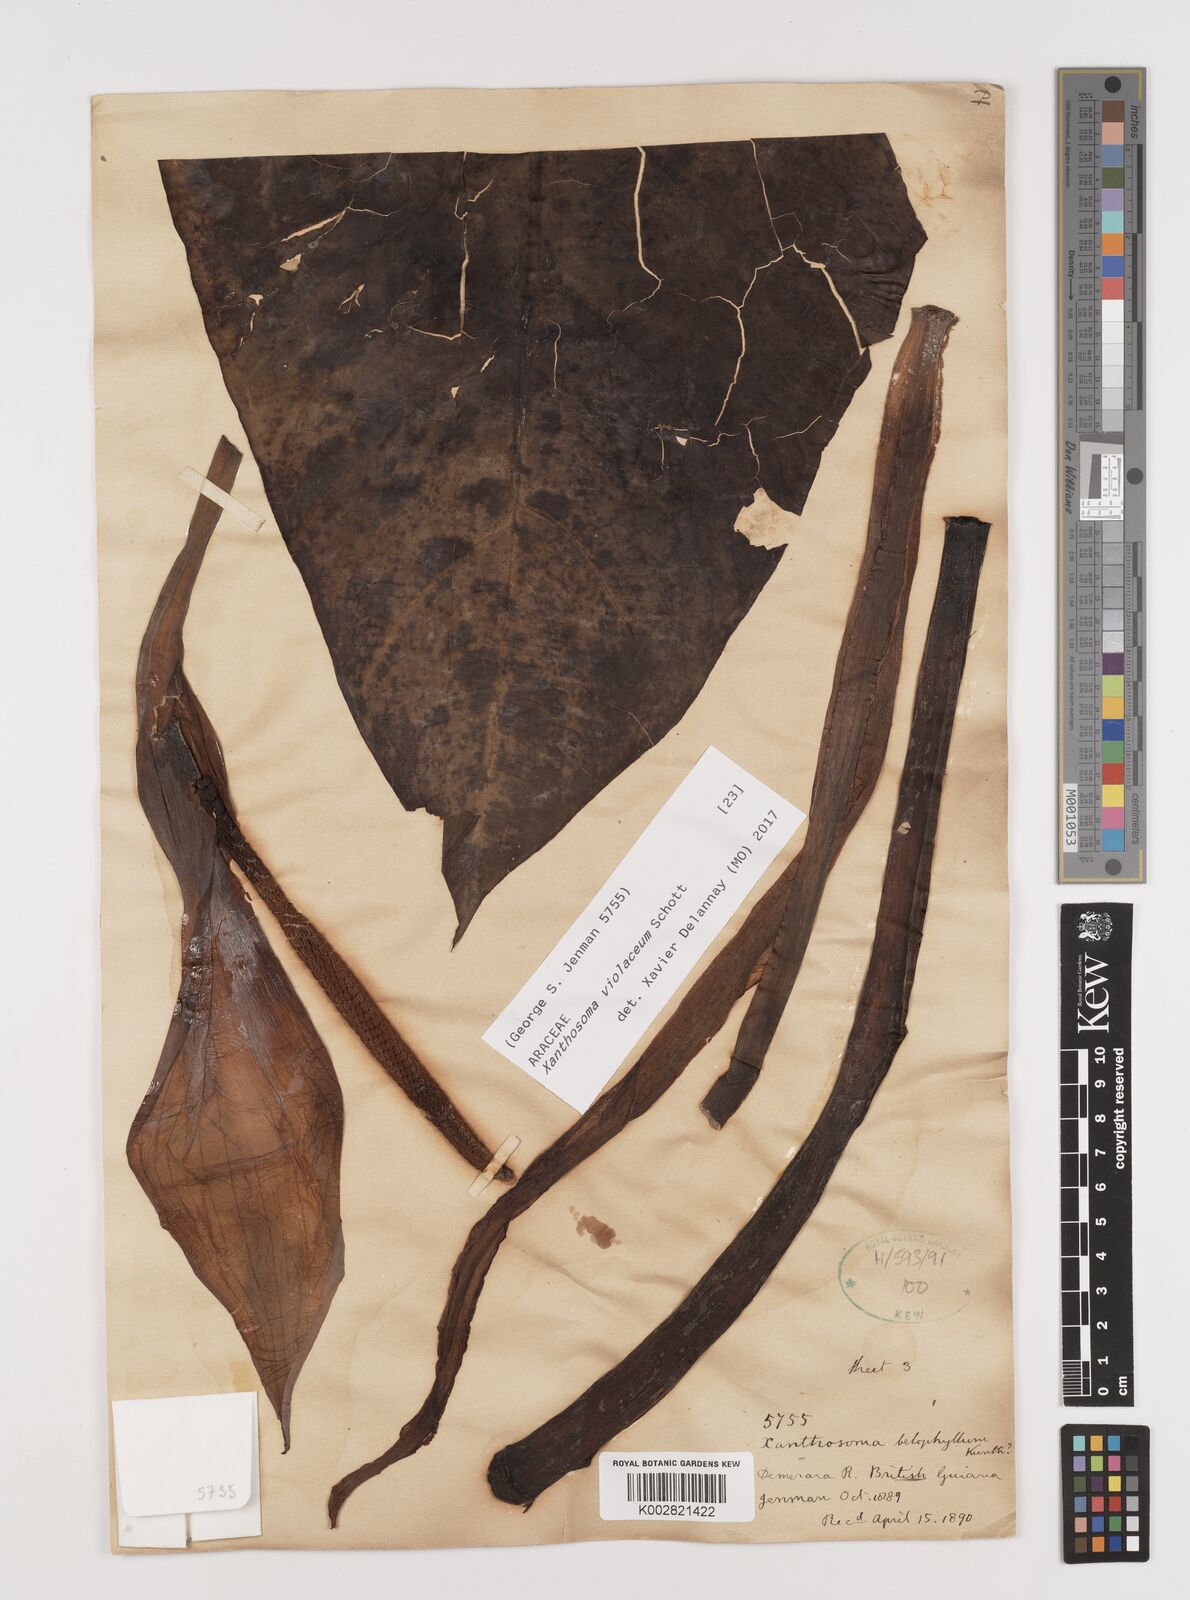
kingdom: Plantae
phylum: Tracheophyta
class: Liliopsida
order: Alismatales
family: Araceae
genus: Xanthosoma
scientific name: Xanthosoma sagittifolium
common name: Arrowleaf elephant's ear
